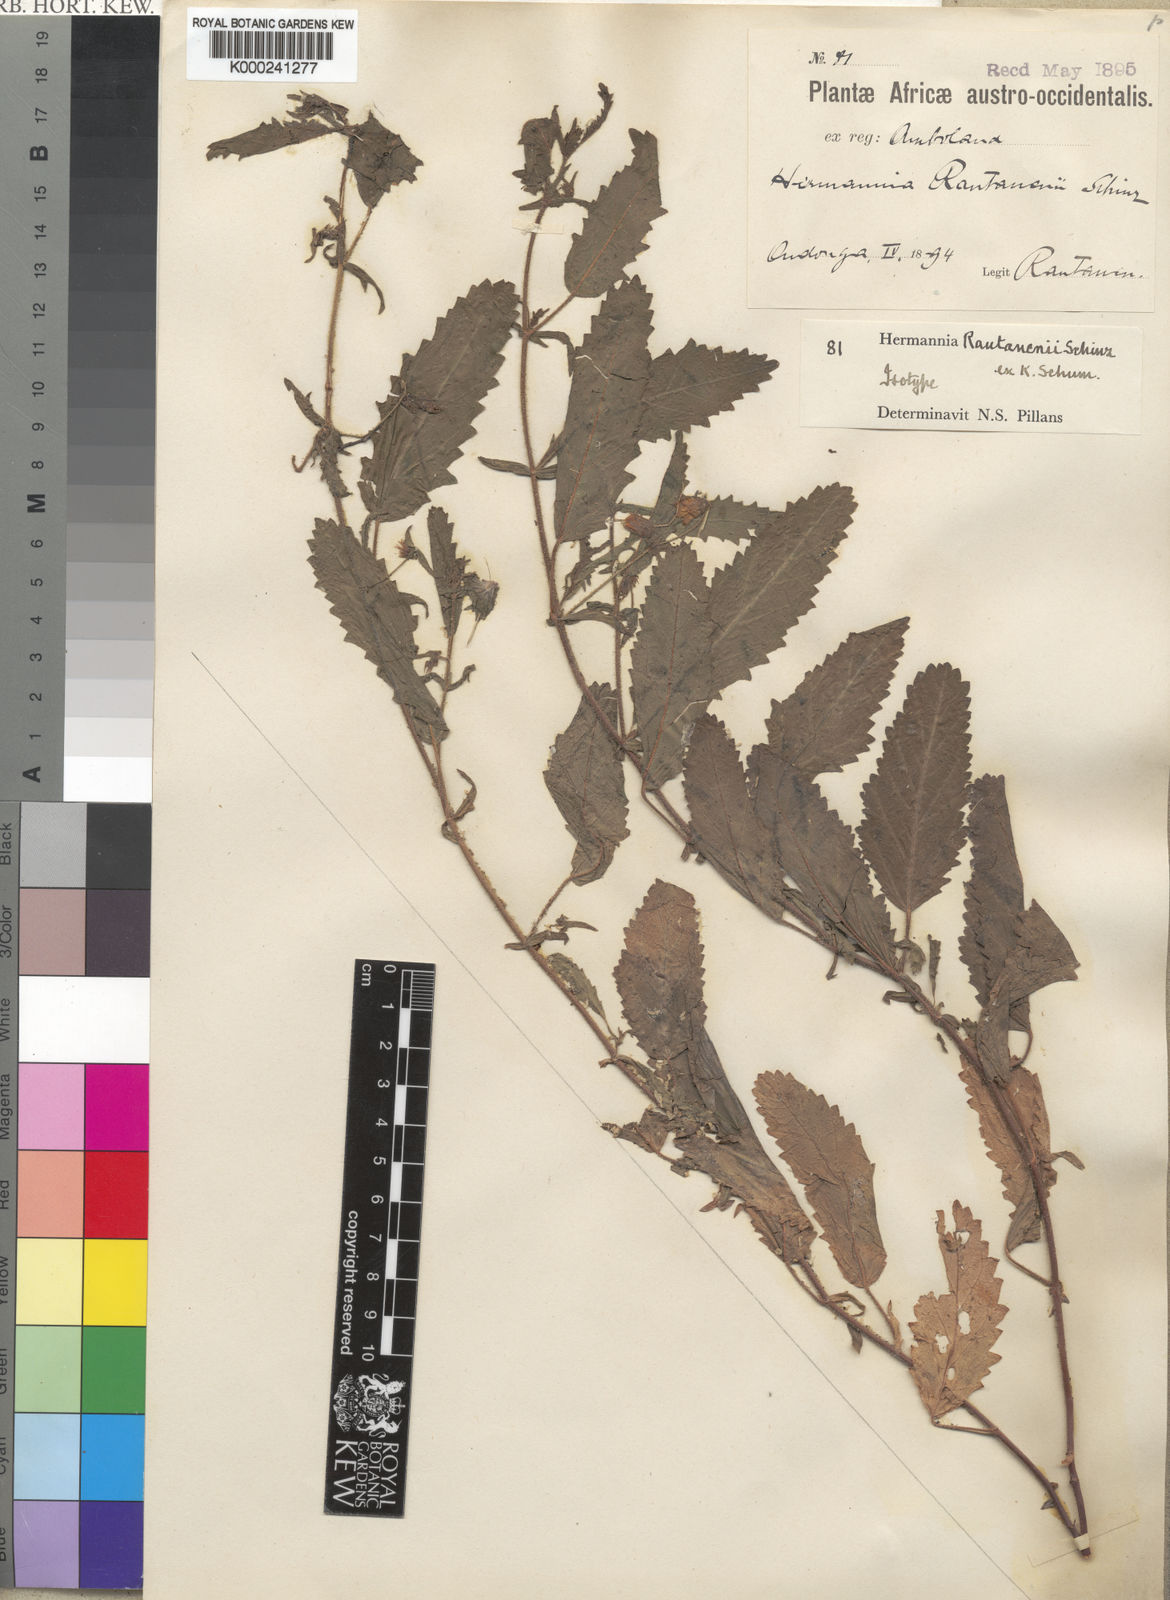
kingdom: Plantae
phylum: Tracheophyta
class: Magnoliopsida
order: Malvales
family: Malvaceae
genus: Hermannia
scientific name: Hermannia rautanenii
